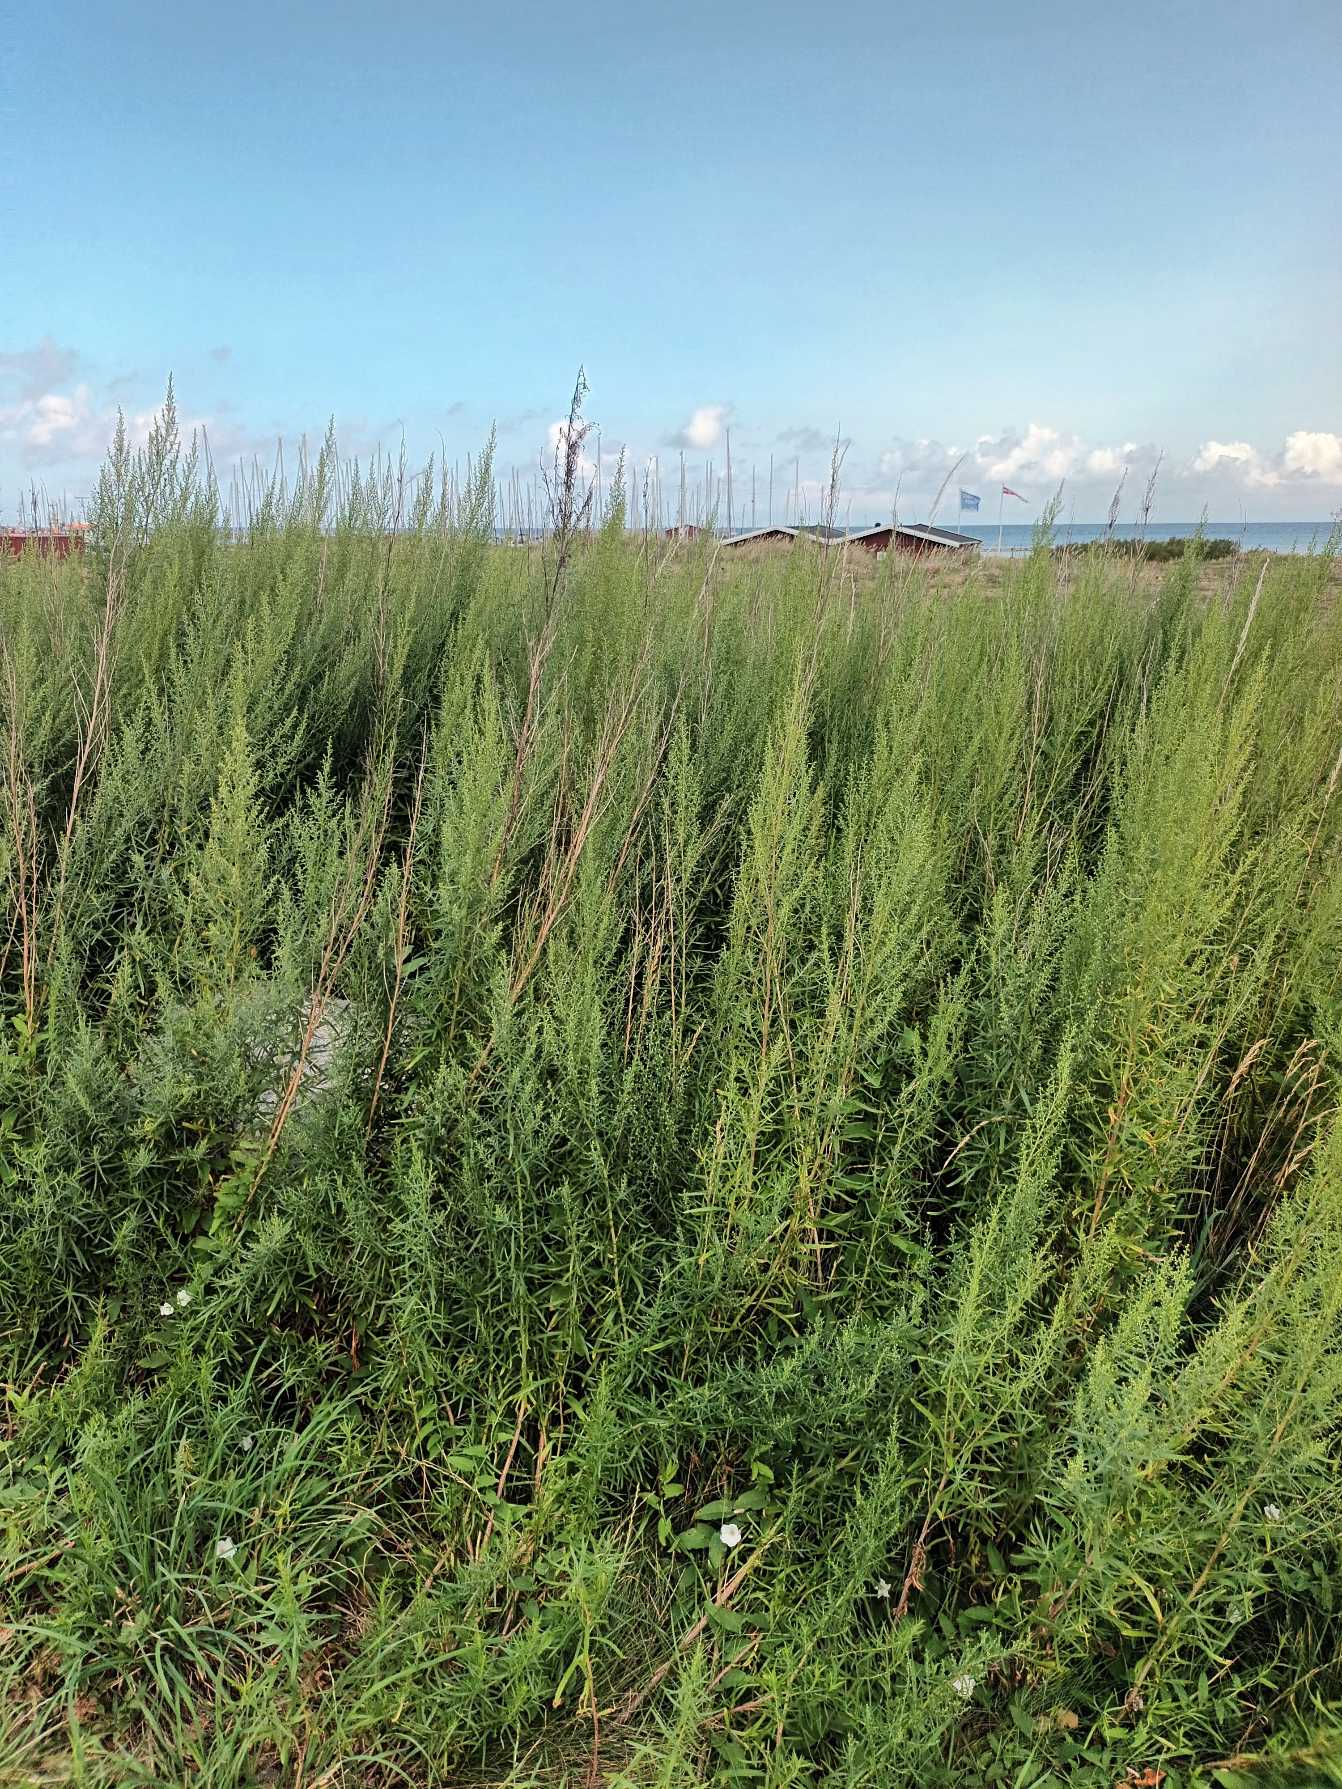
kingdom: Plantae
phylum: Tracheophyta
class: Magnoliopsida
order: Asterales
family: Asteraceae
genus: Artemisia
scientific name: Artemisia dracunculus
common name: Esdragon
